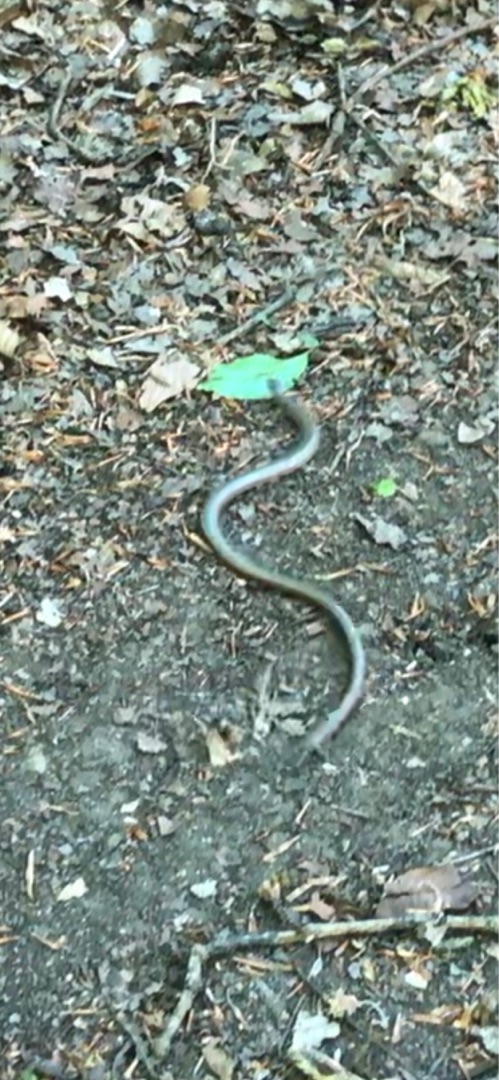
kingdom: Animalia
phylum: Chordata
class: Squamata
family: Anguidae
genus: Anguis
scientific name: Anguis fragilis
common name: Stålorm
